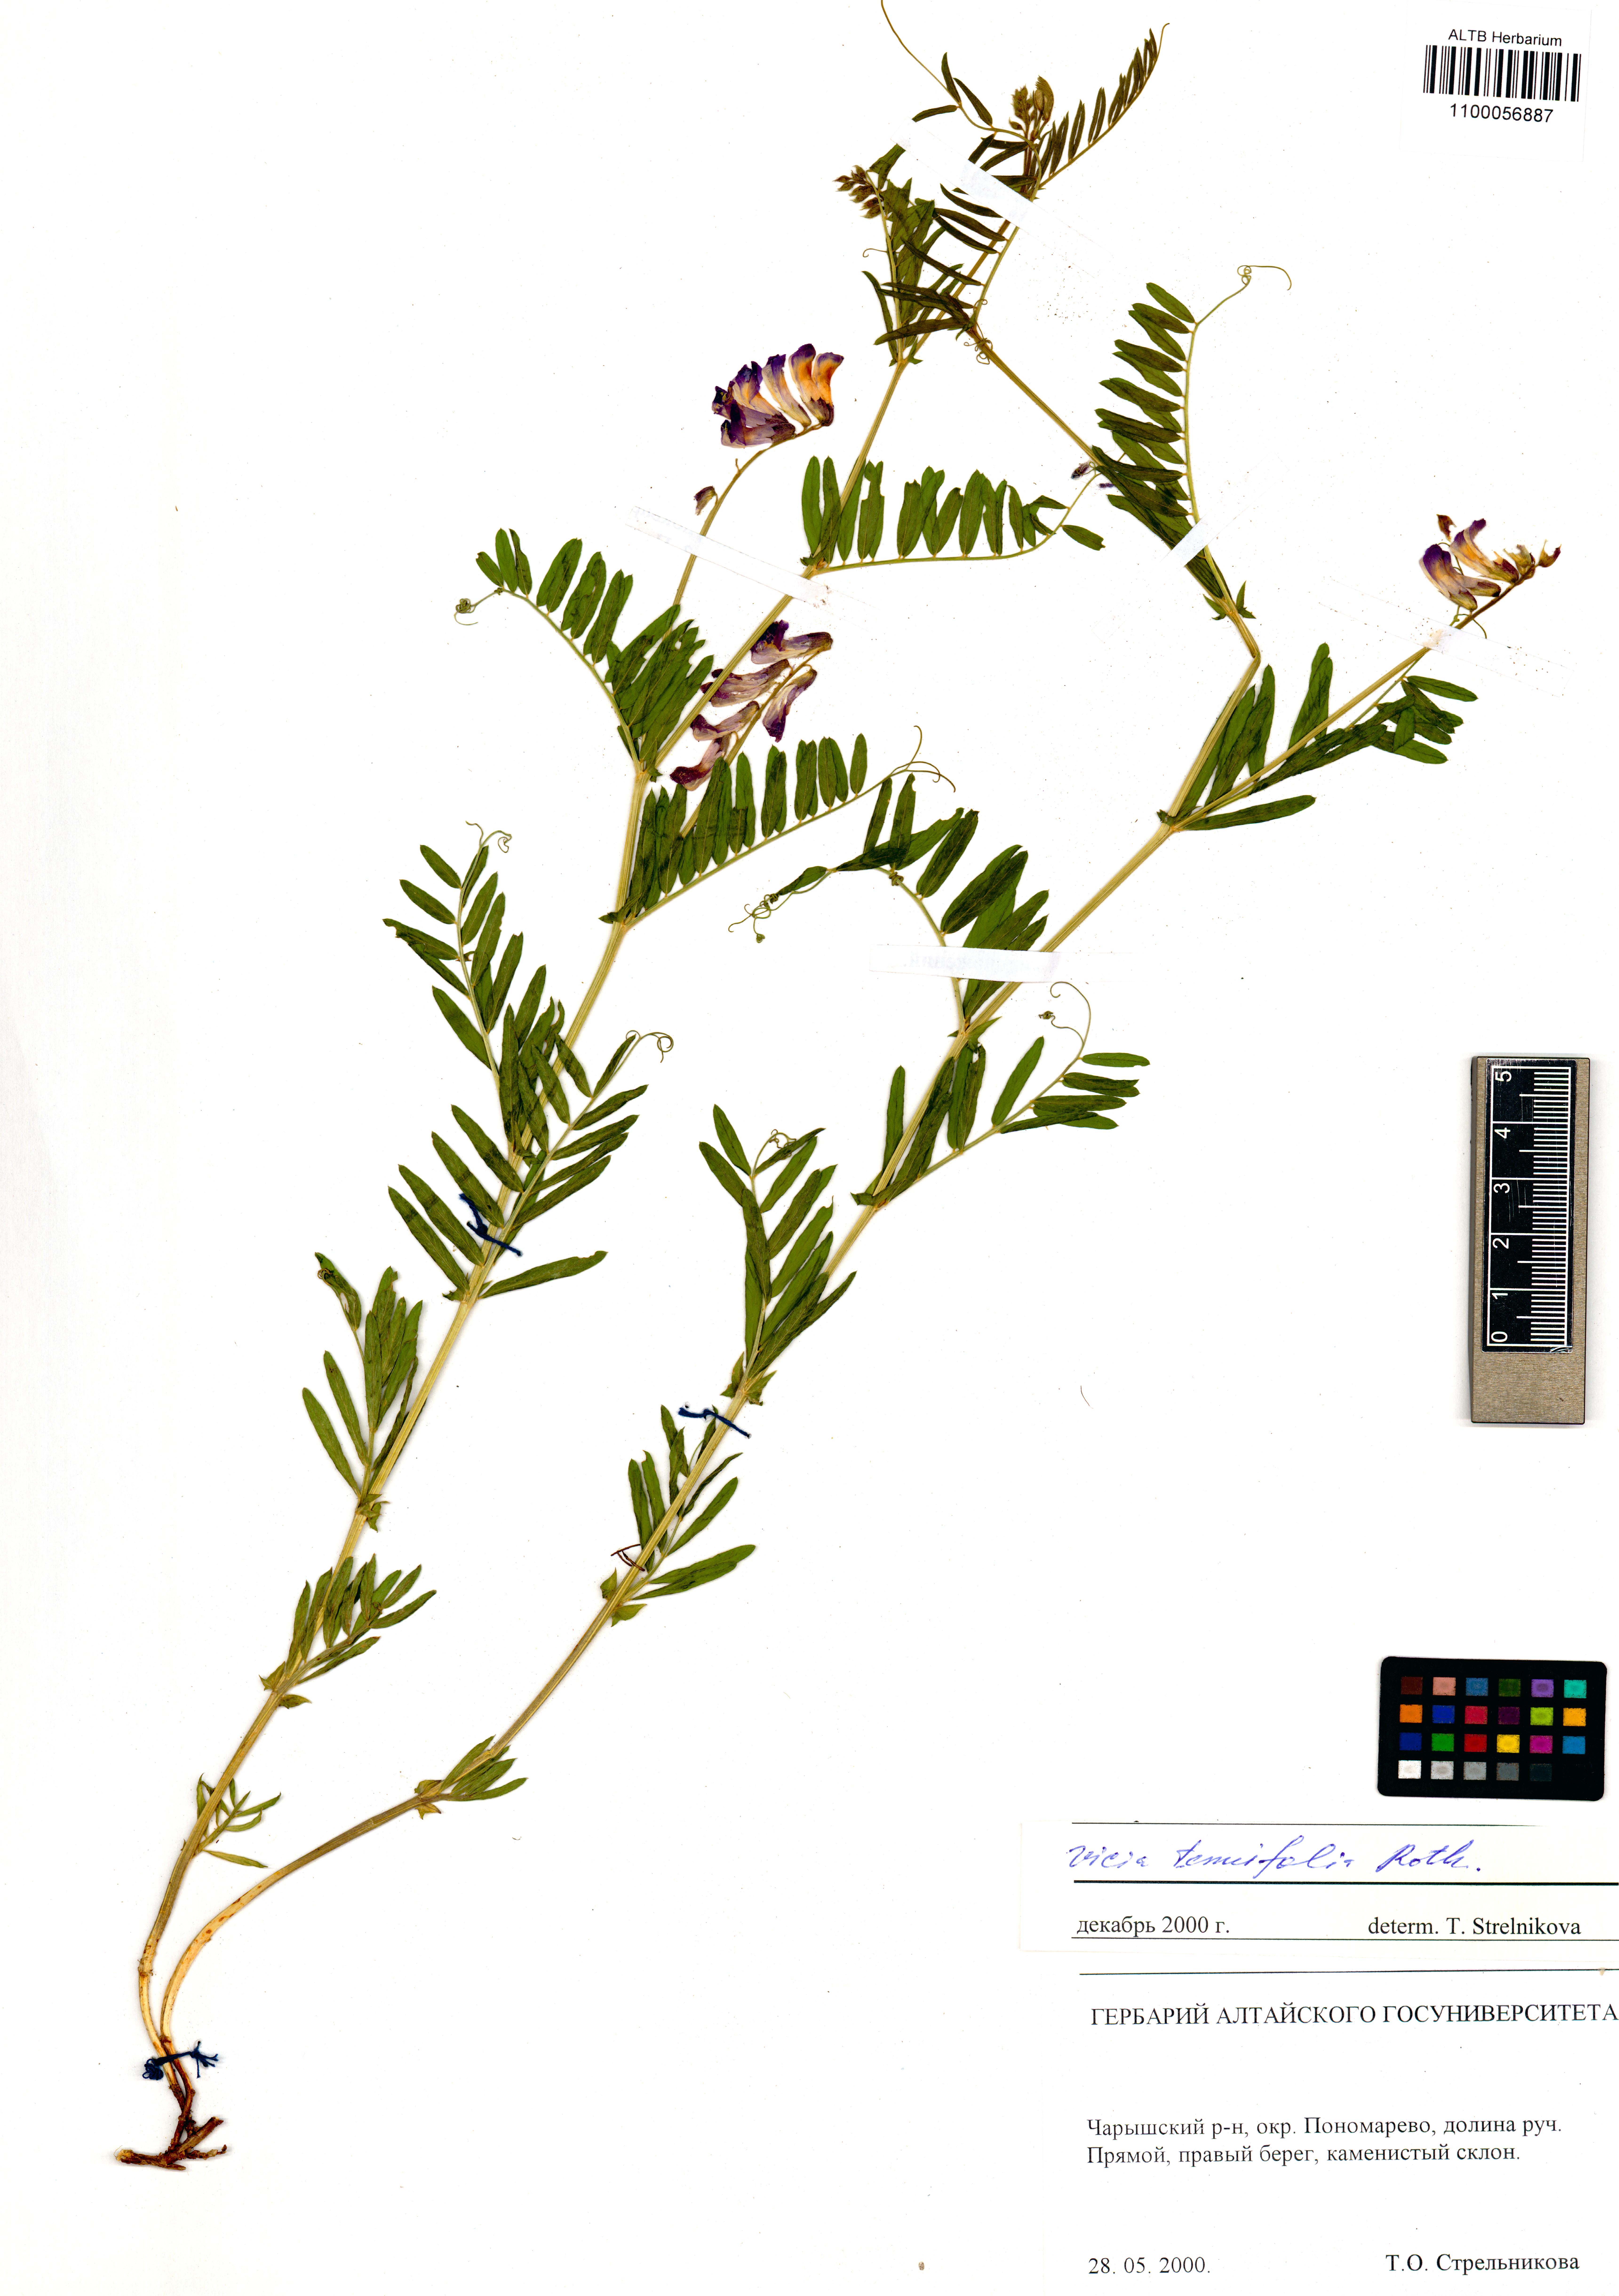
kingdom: Plantae
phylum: Tracheophyta
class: Magnoliopsida
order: Fabales
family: Fabaceae
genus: Vicia
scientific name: Vicia tenuifolia
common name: Fine-leaved vetch
